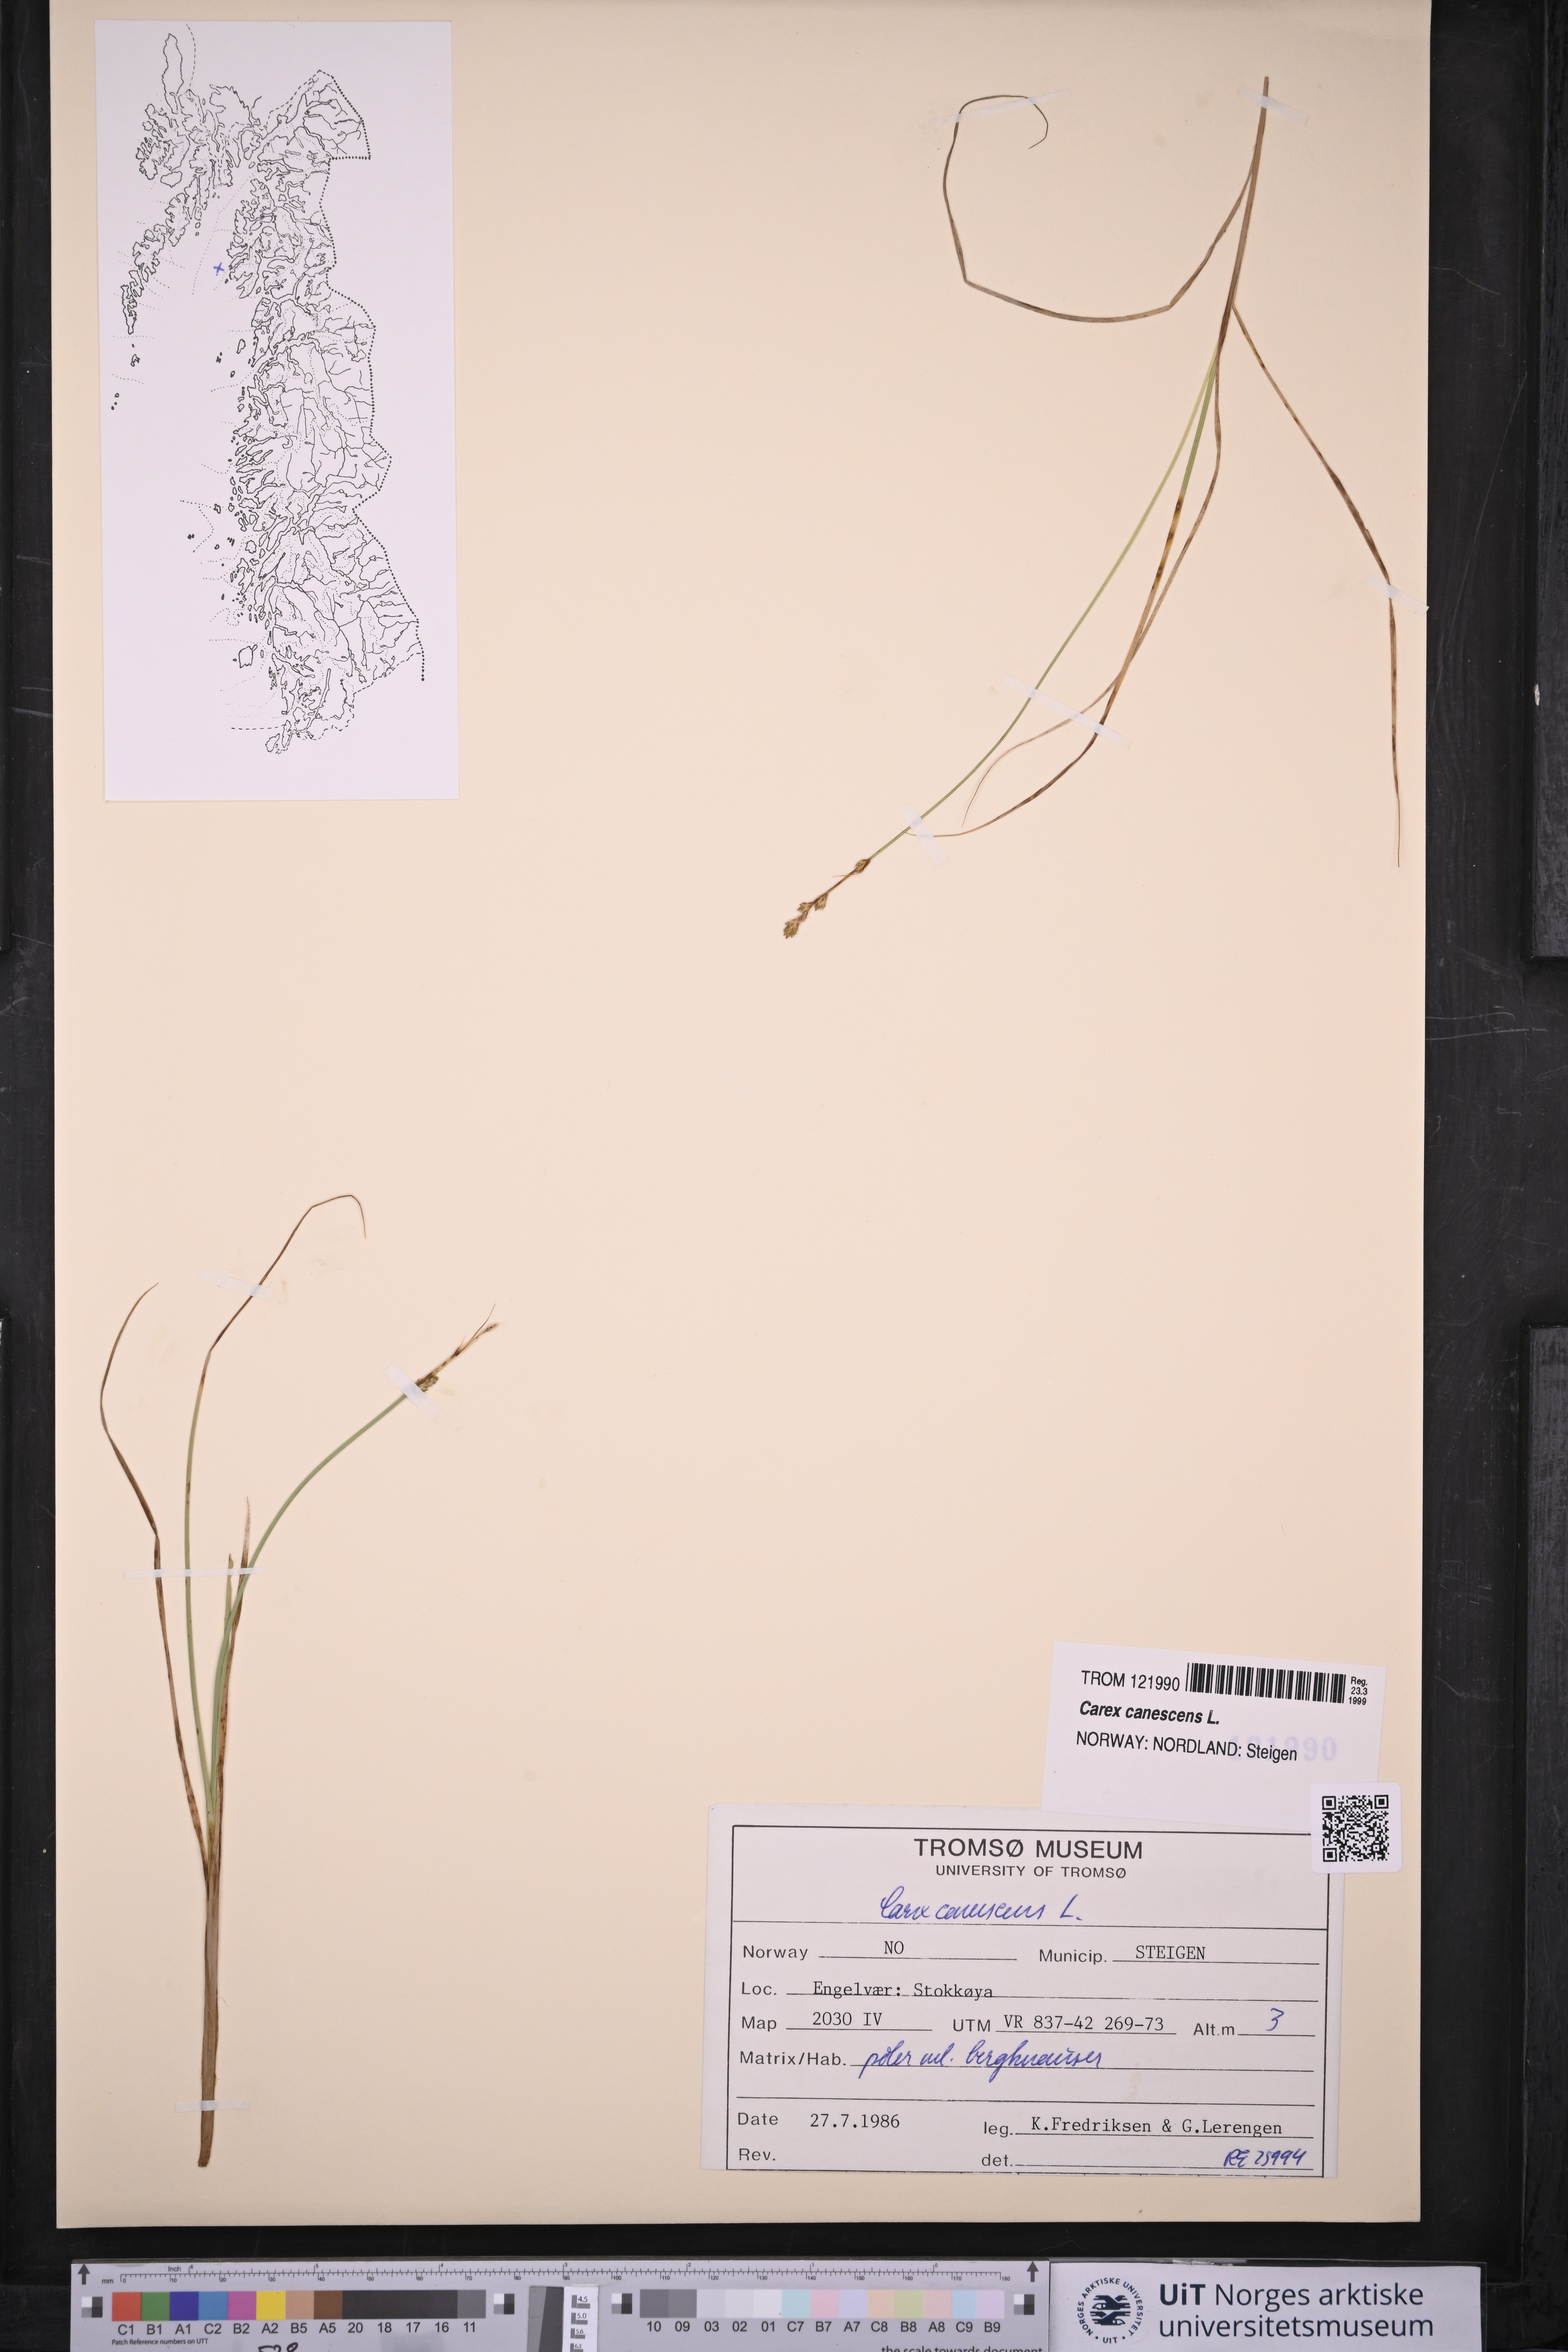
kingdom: Plantae
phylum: Tracheophyta
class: Liliopsida
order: Poales
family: Cyperaceae
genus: Carex
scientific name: Carex canescens
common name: White sedge
